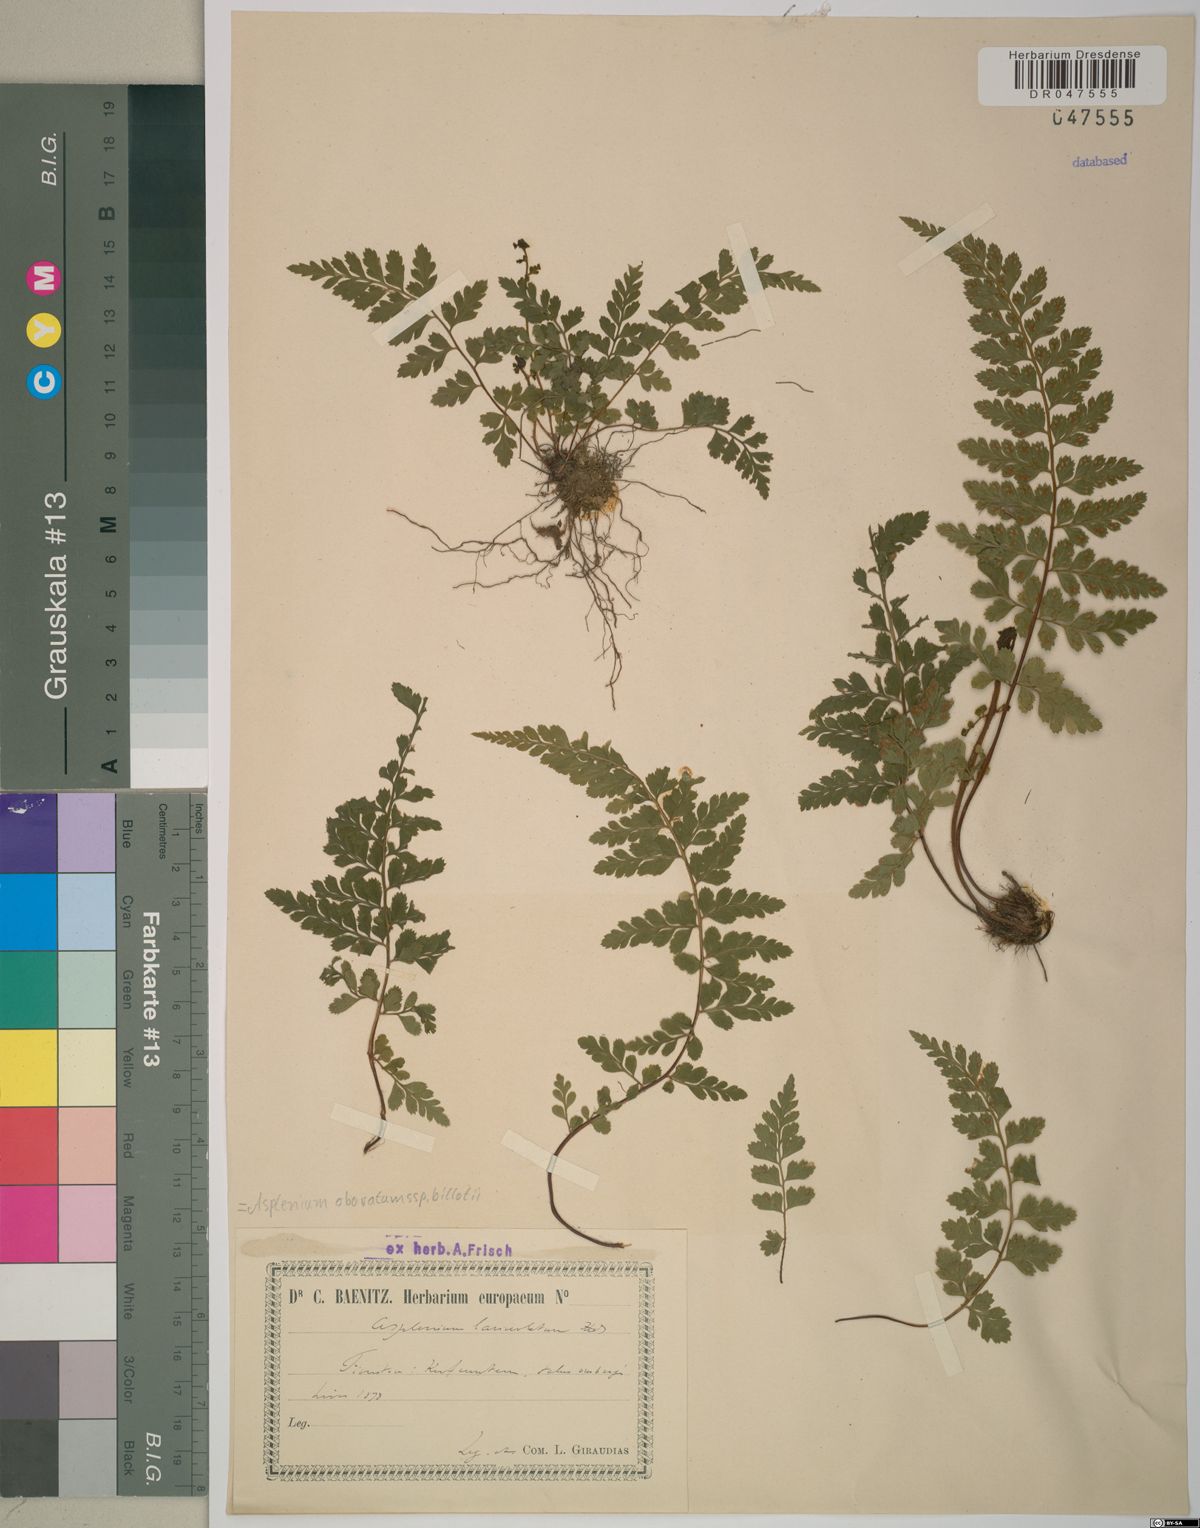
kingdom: Plantae
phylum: Tracheophyta
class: Polypodiopsida
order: Polypodiales
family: Aspleniaceae
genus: Asplenium
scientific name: Asplenium obovatum
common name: Lanceolate spleenwort
